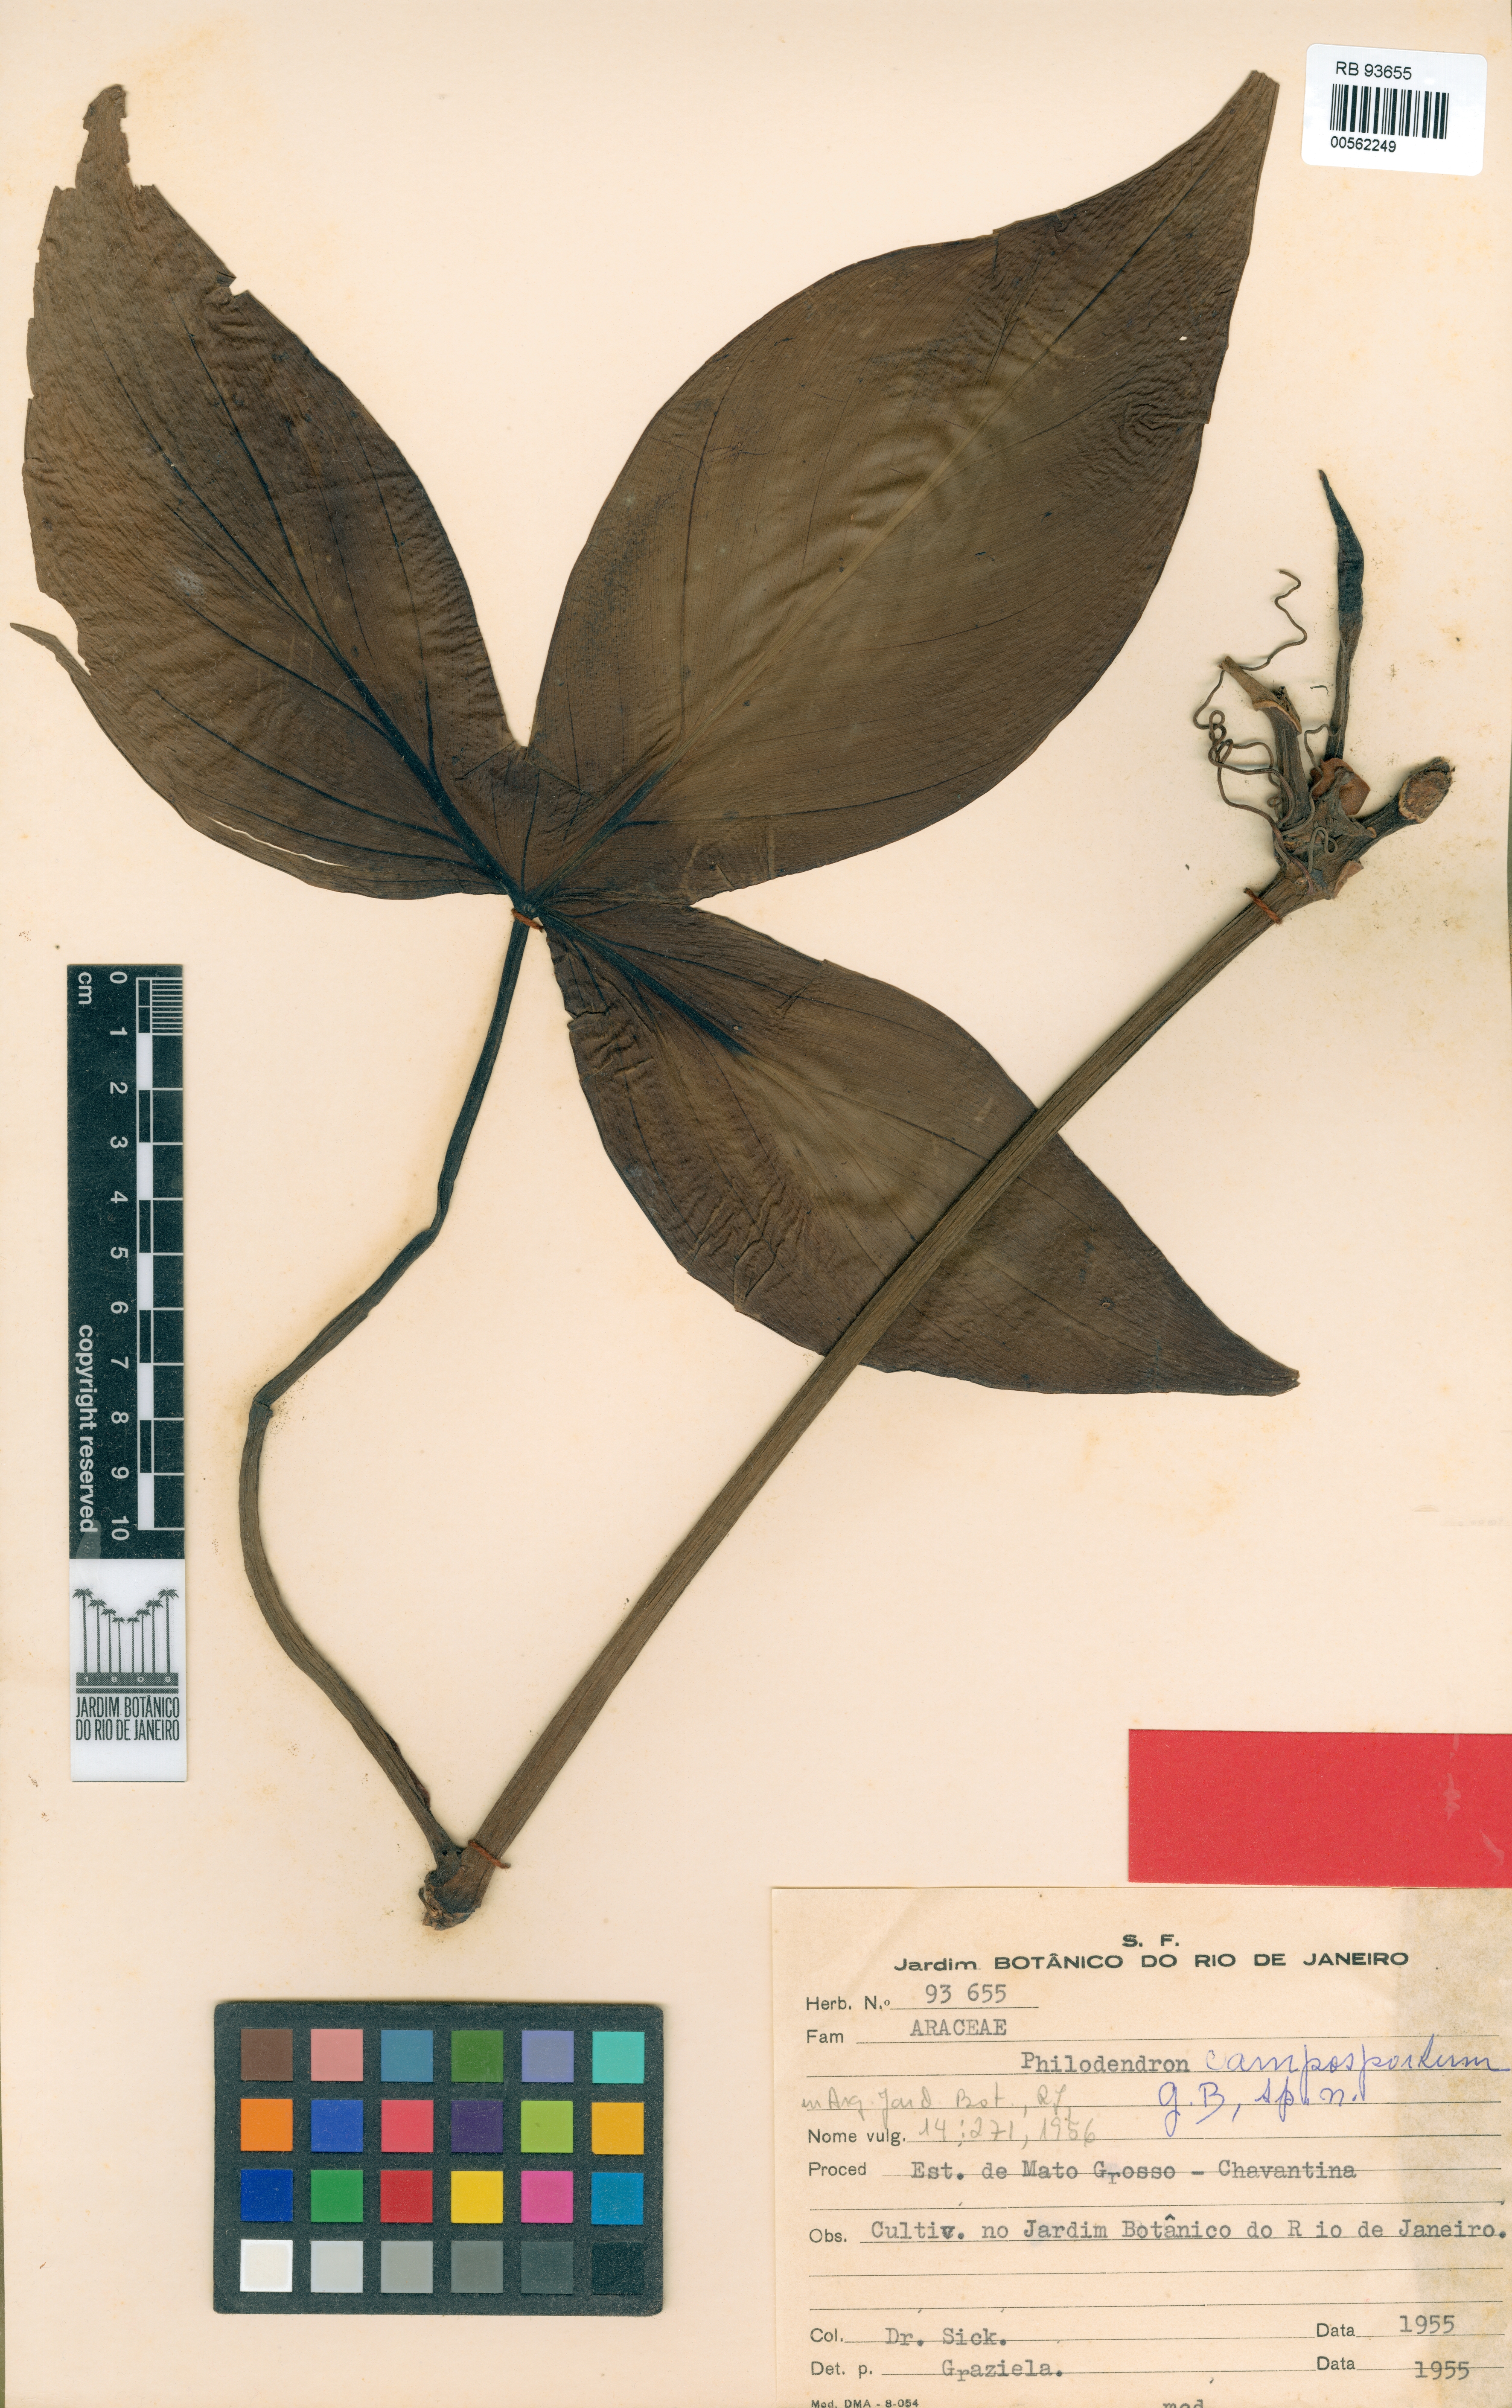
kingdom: Plantae
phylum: Tracheophyta
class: Liliopsida
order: Alismatales
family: Araceae
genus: Philodendron
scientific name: Philodendron camposportoanum
